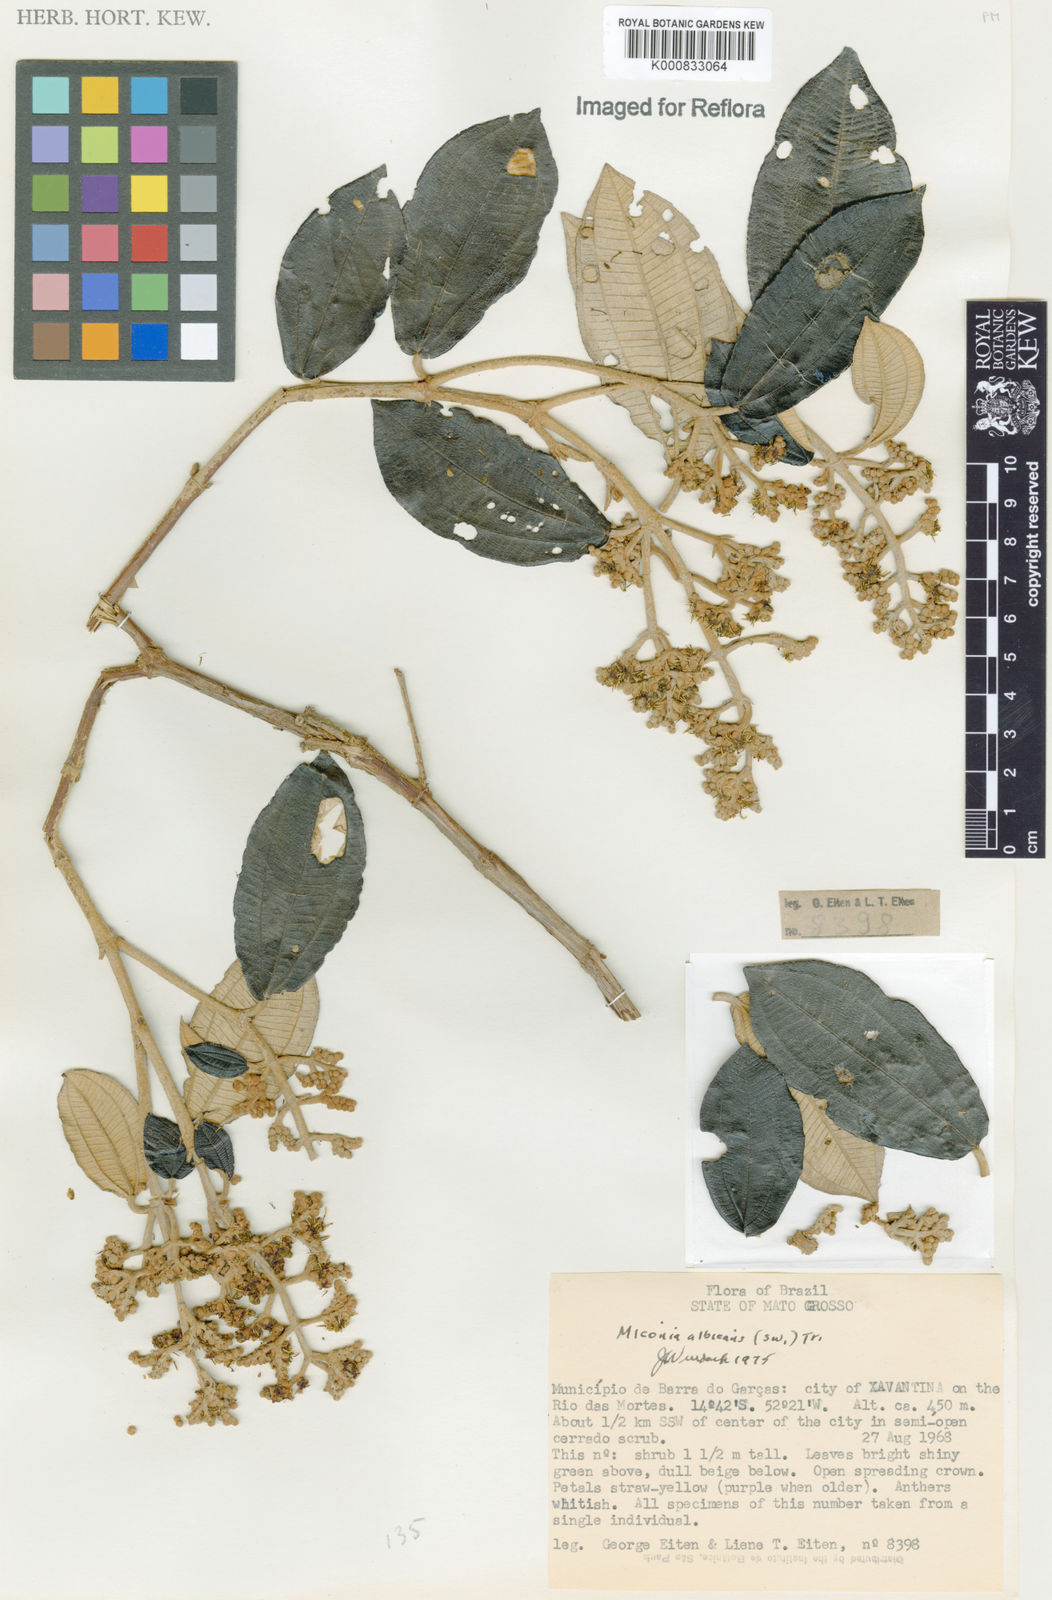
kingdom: Plantae
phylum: Tracheophyta
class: Magnoliopsida
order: Myrtales
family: Melastomataceae
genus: Miconia
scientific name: Miconia albicans
